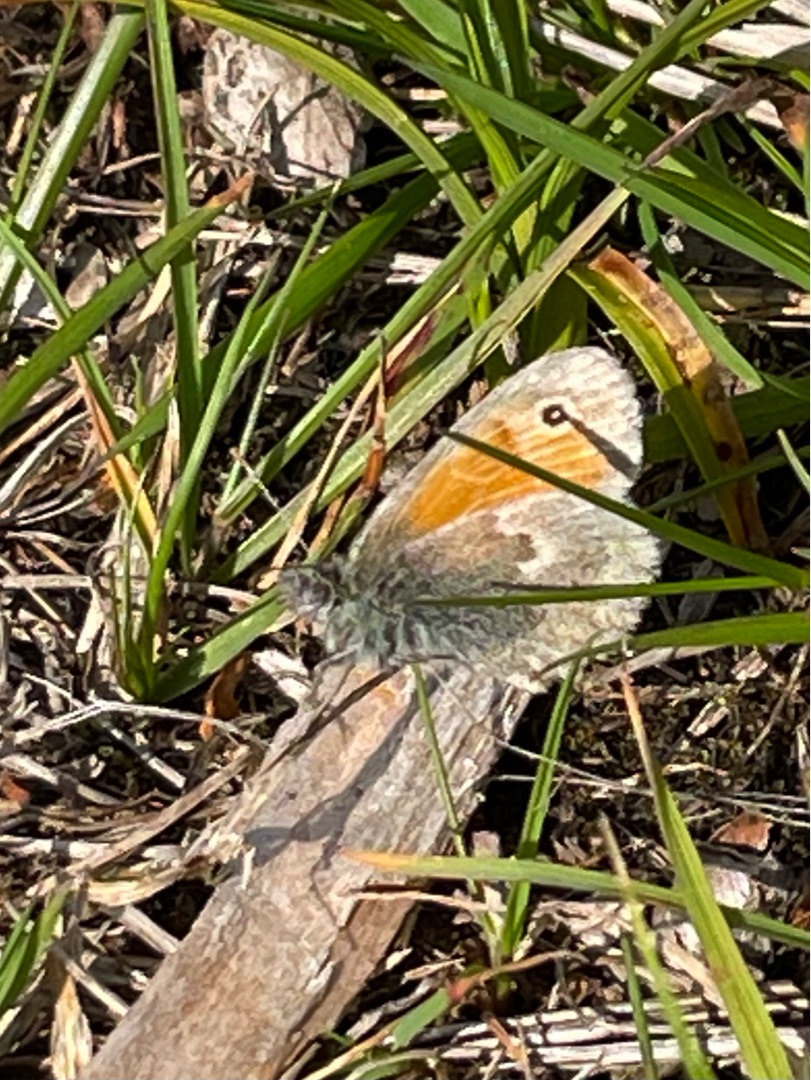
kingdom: Animalia
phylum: Arthropoda
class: Insecta
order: Lepidoptera
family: Nymphalidae
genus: Coenonympha
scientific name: Coenonympha pamphilus
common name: Okkergul randøje
